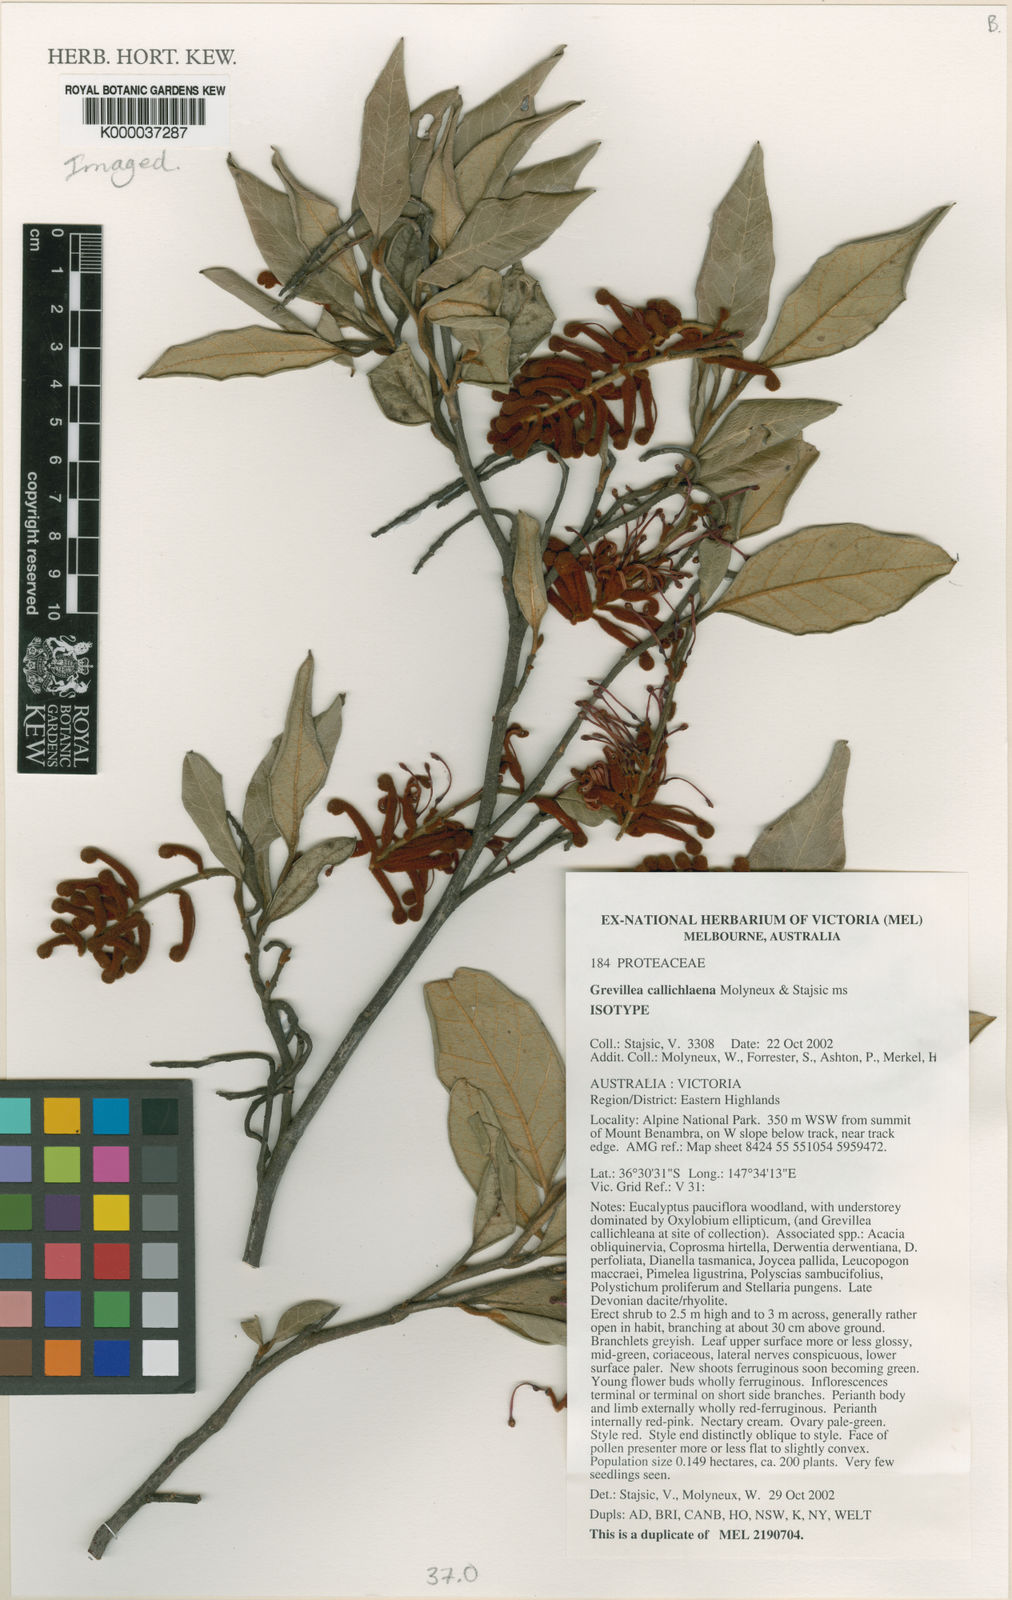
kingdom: Plantae
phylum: Tracheophyta
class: Magnoliopsida
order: Proteales
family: Proteaceae
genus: Grevillea
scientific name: Grevillea callichlaena
